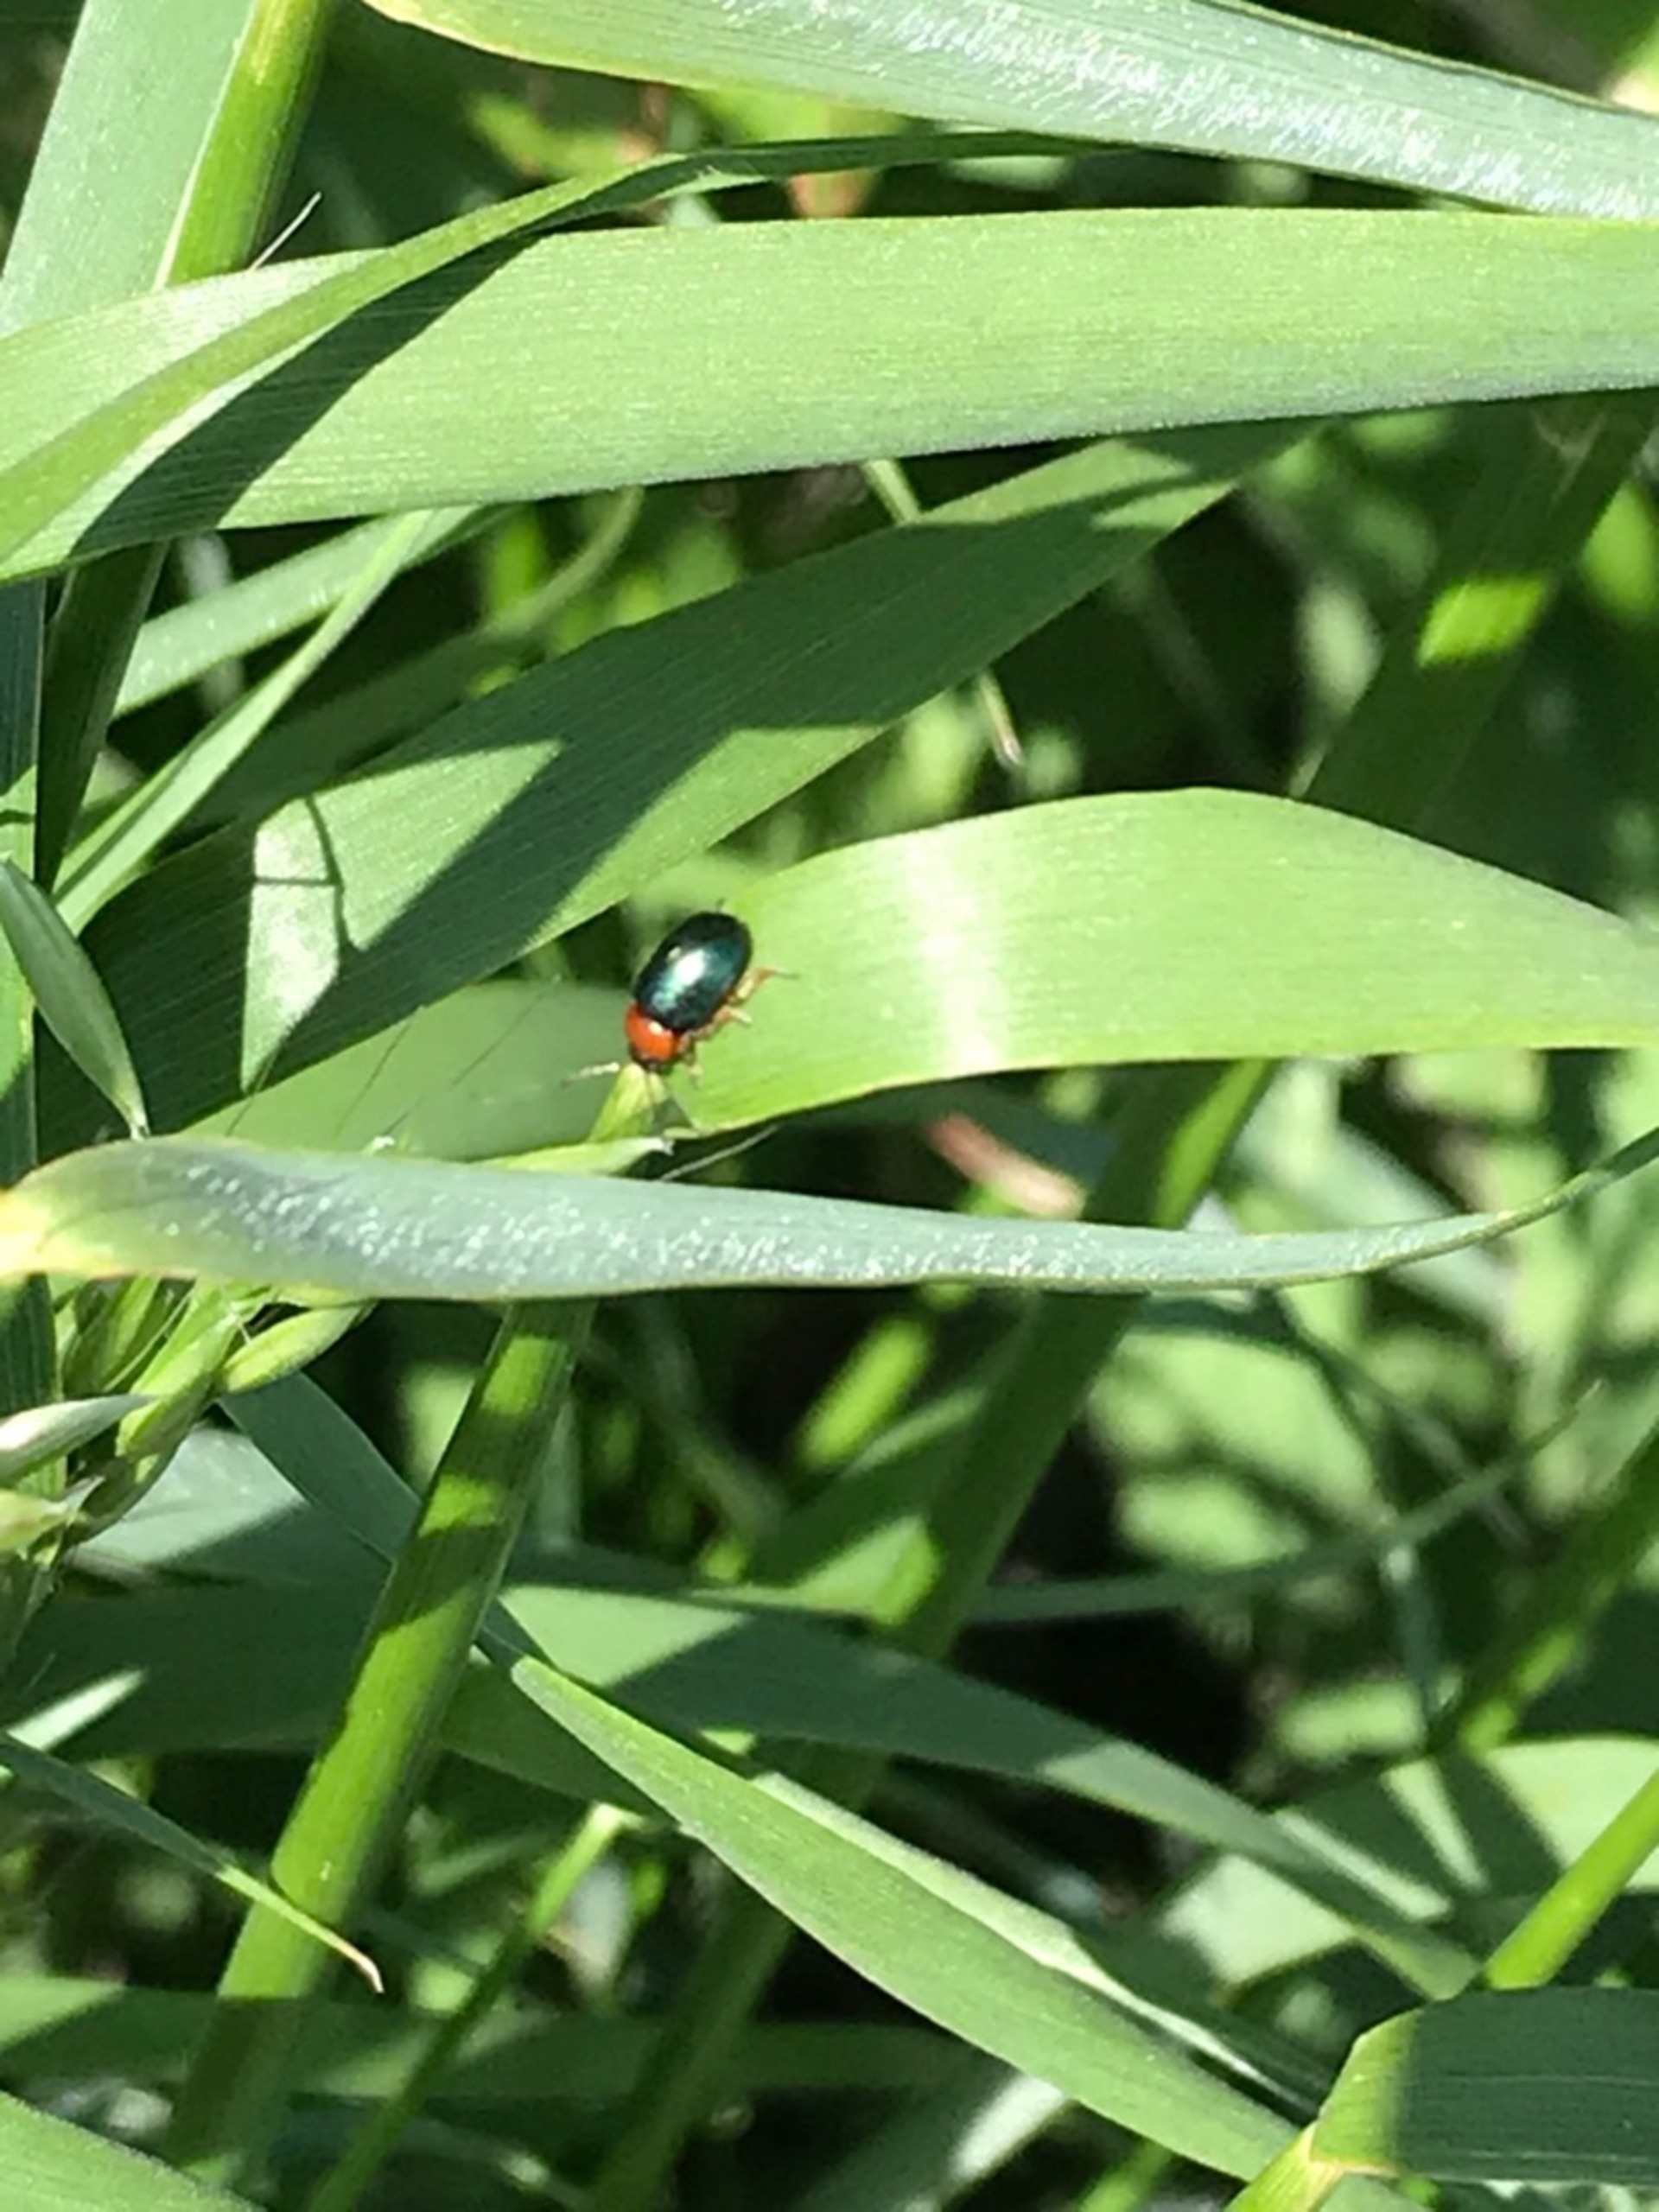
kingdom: Animalia
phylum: Arthropoda
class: Insecta
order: Coleoptera
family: Chrysomelidae
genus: Gastrophysa
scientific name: Gastrophysa polygoni
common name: Pileurtbladbille
